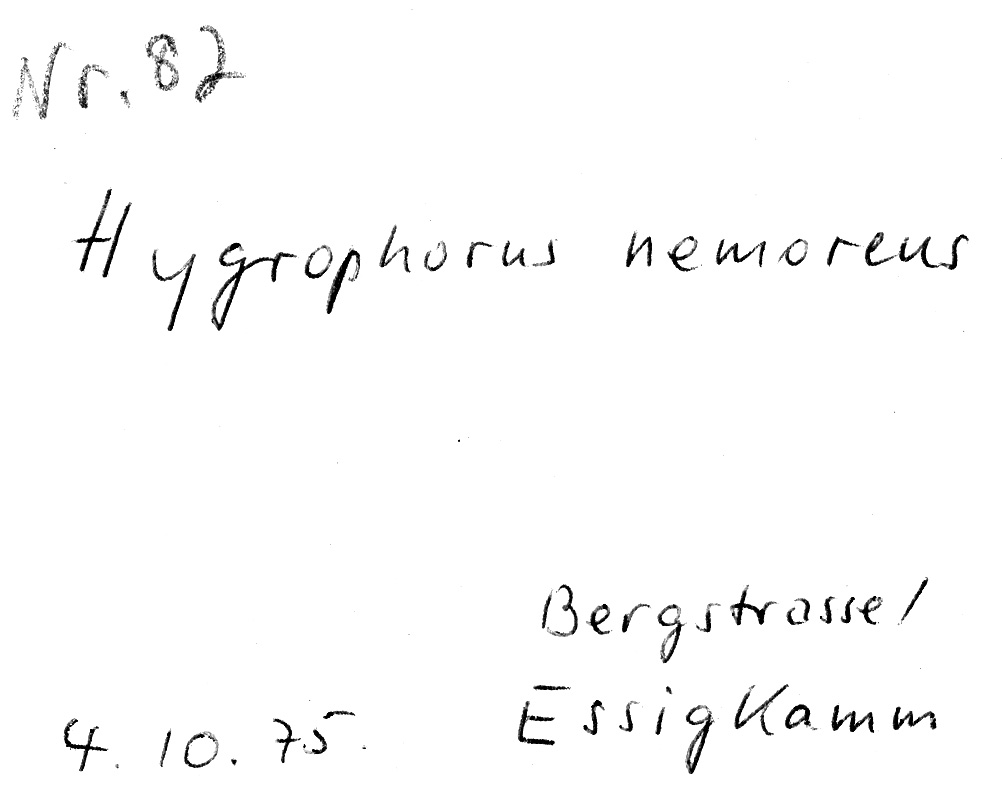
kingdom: Fungi
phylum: Basidiomycota
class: Agaricomycetes
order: Agaricales
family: Hygrophoraceae
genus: Hygrophorus
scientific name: Hygrophorus nemoreus
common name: Oak woodwax
